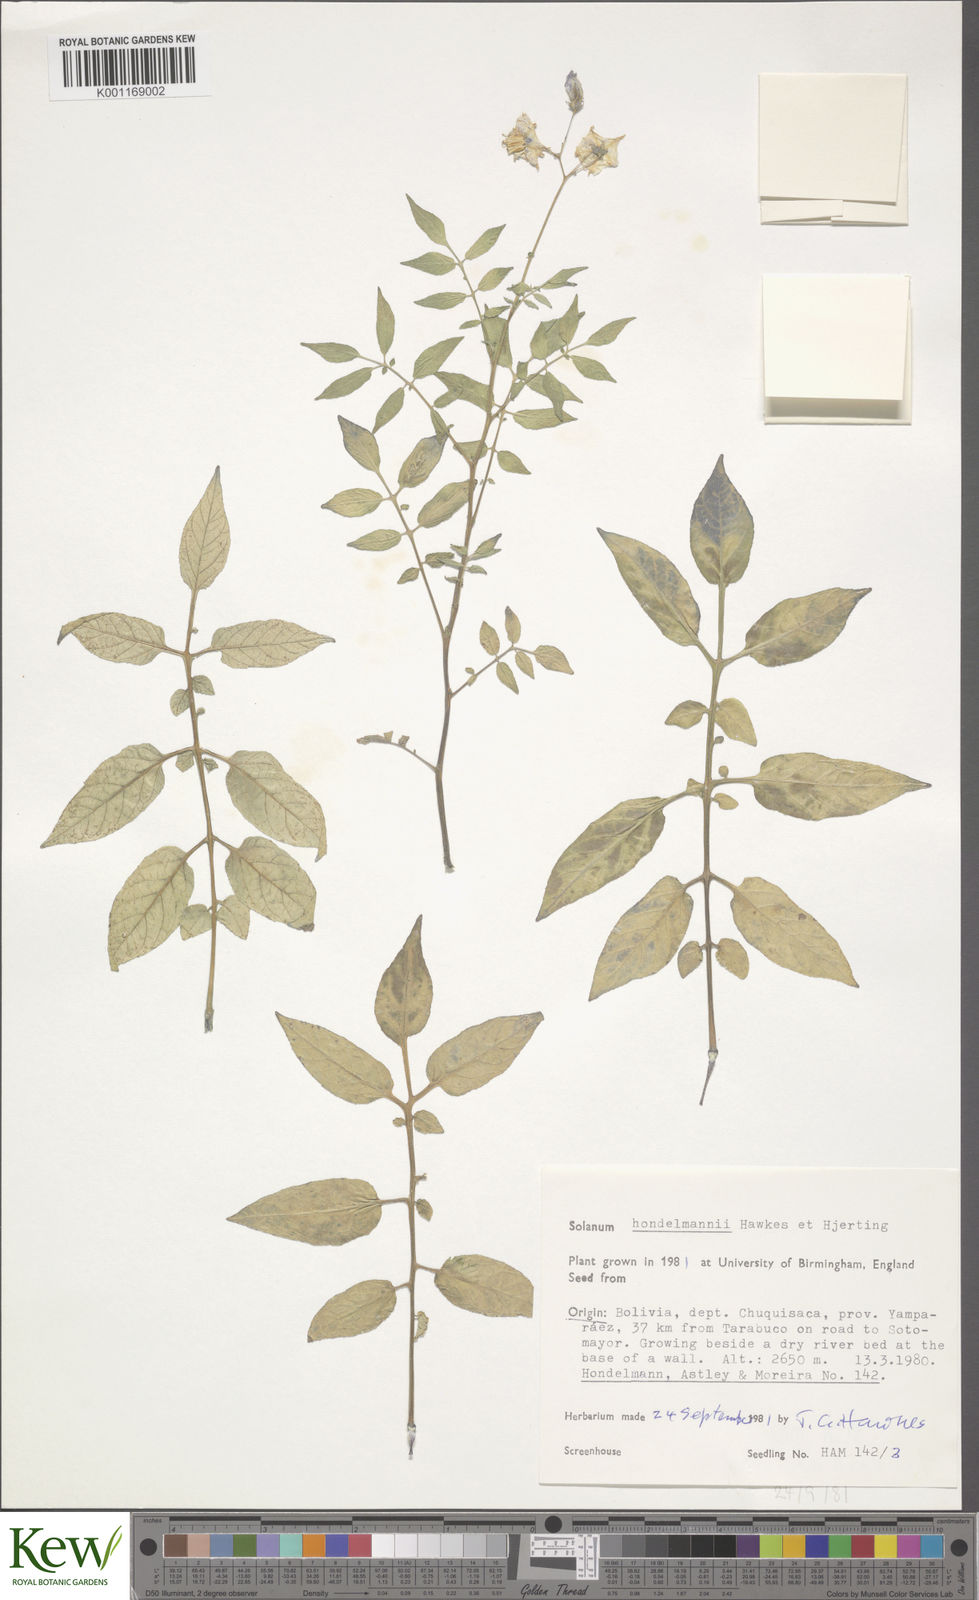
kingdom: Plantae
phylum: Tracheophyta
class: Magnoliopsida
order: Solanales
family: Solanaceae
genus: Solanum
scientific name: Solanum brevicaule
